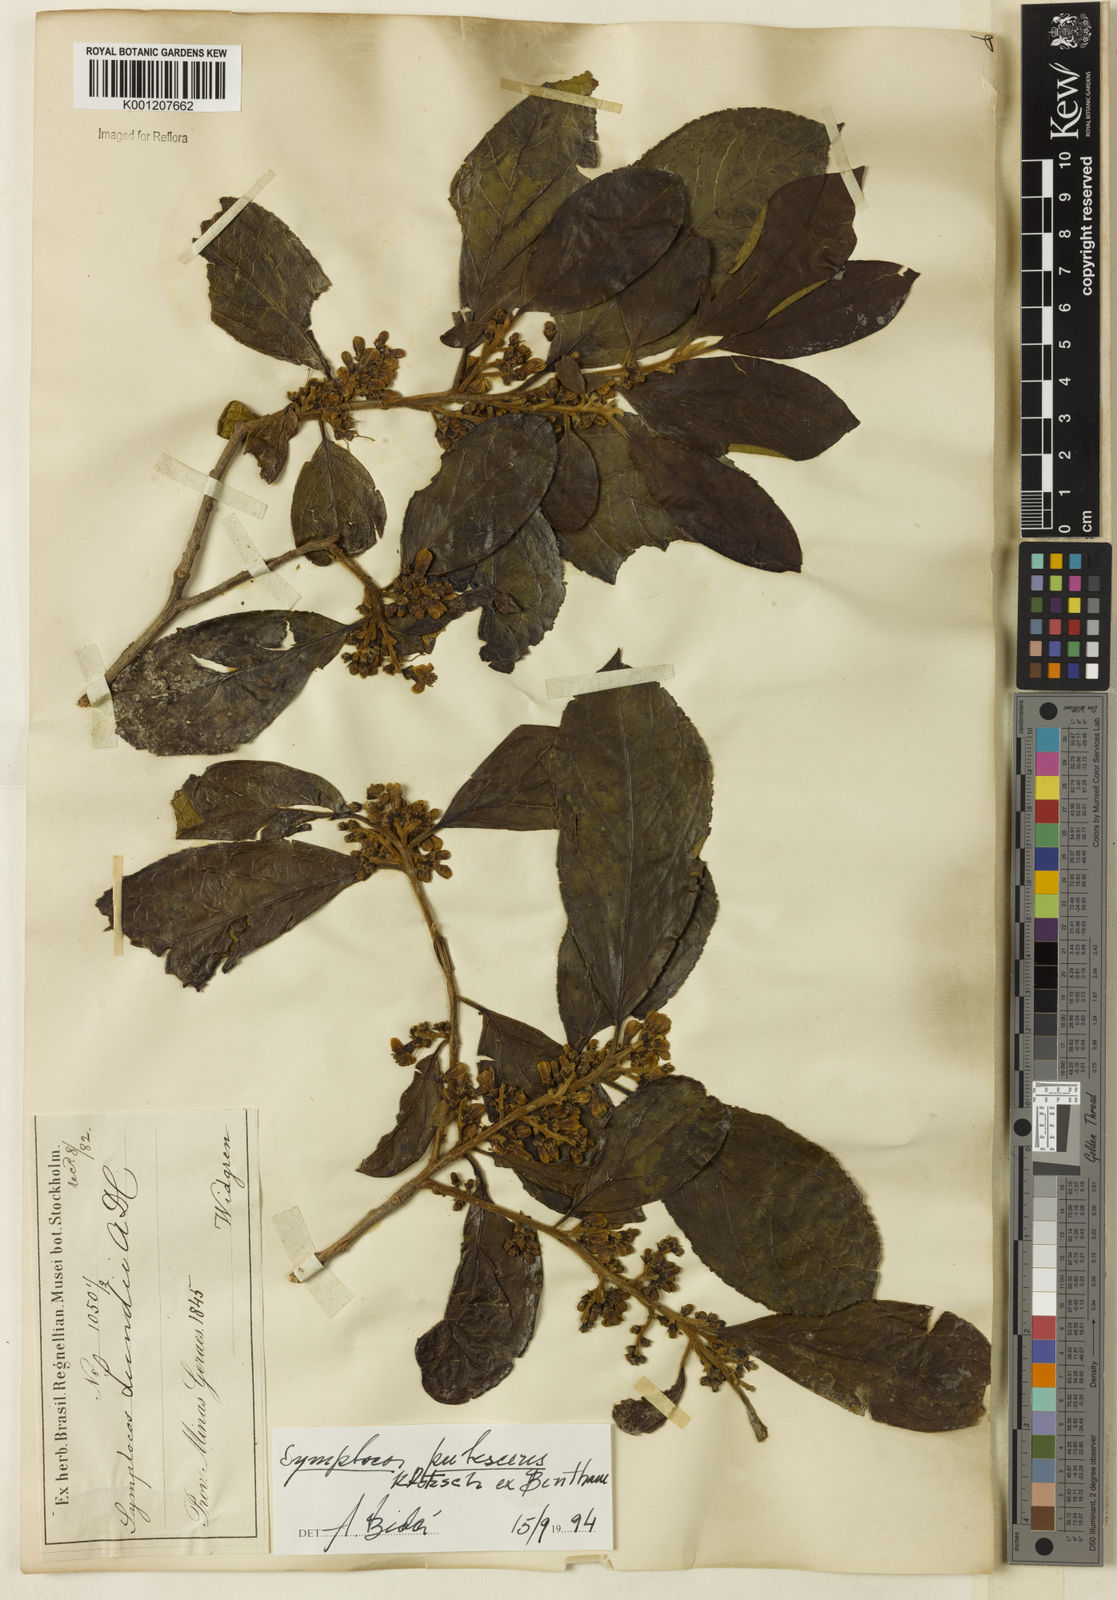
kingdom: Plantae
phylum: Tracheophyta
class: Magnoliopsida
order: Ericales
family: Symplocaceae
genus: Symplocos
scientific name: Symplocos pubescens
